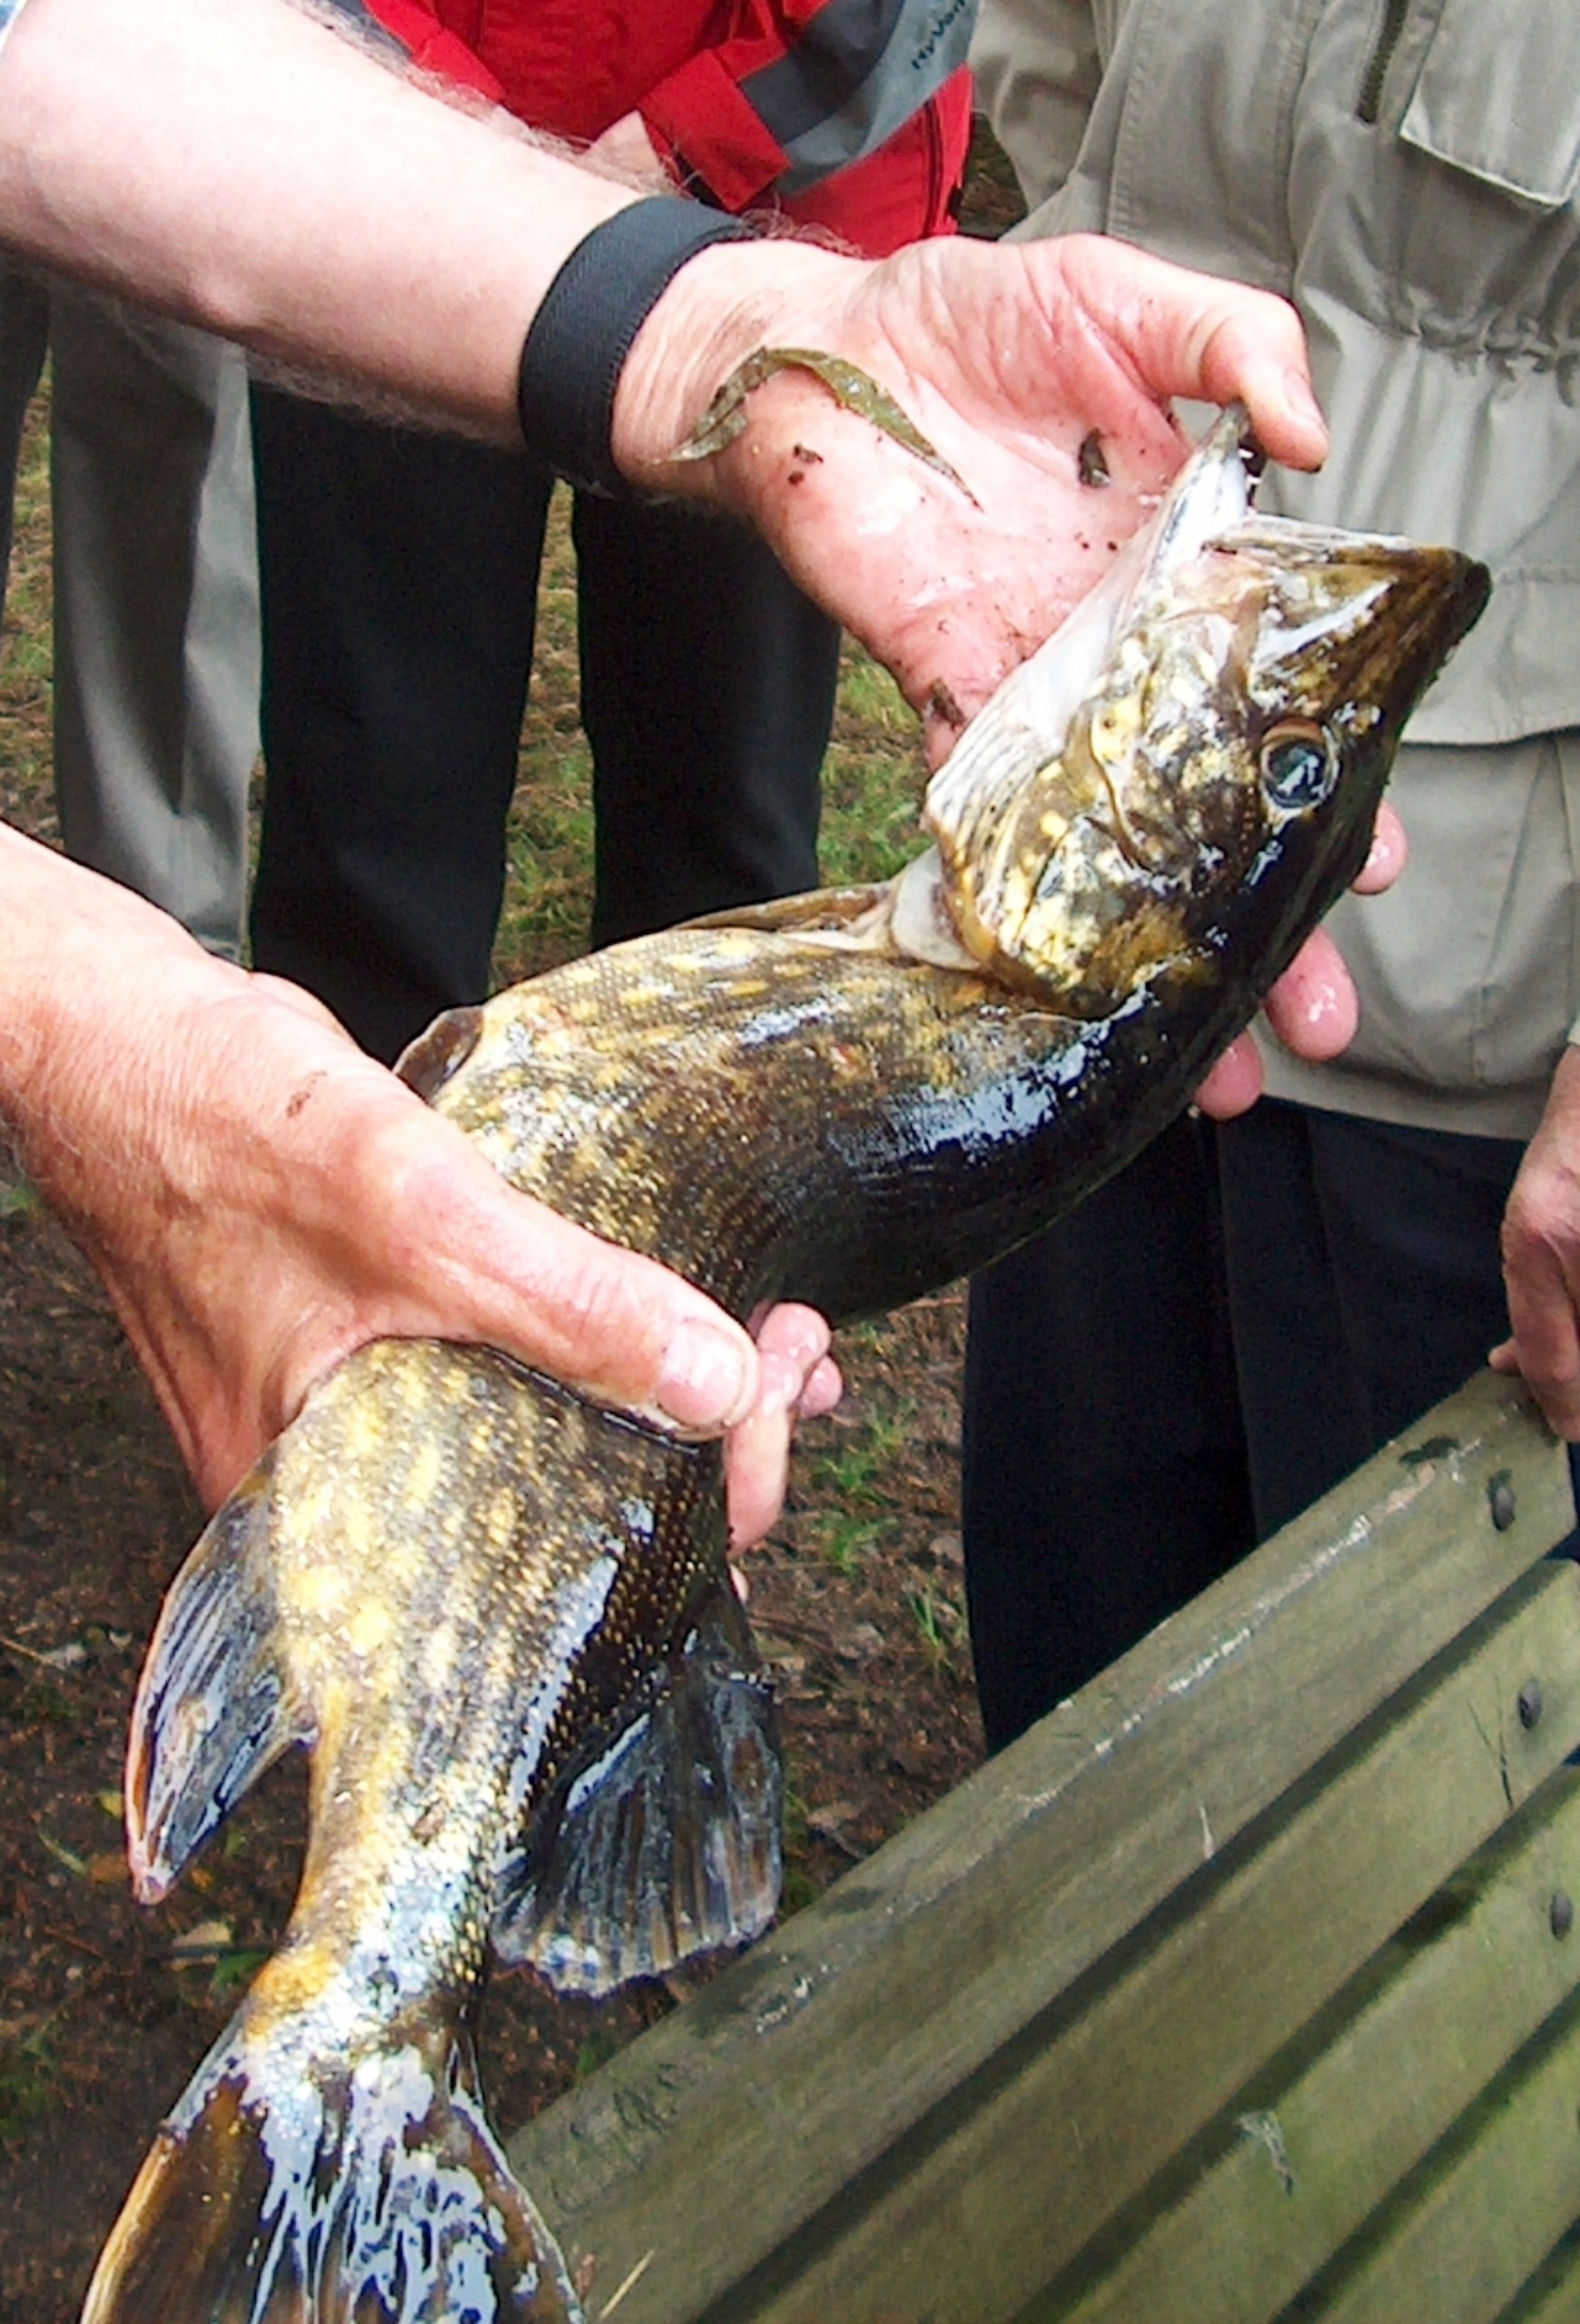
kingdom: Animalia
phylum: Chordata
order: Esociformes
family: Esocidae
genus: Esox
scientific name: Esox lucius
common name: Gedde
